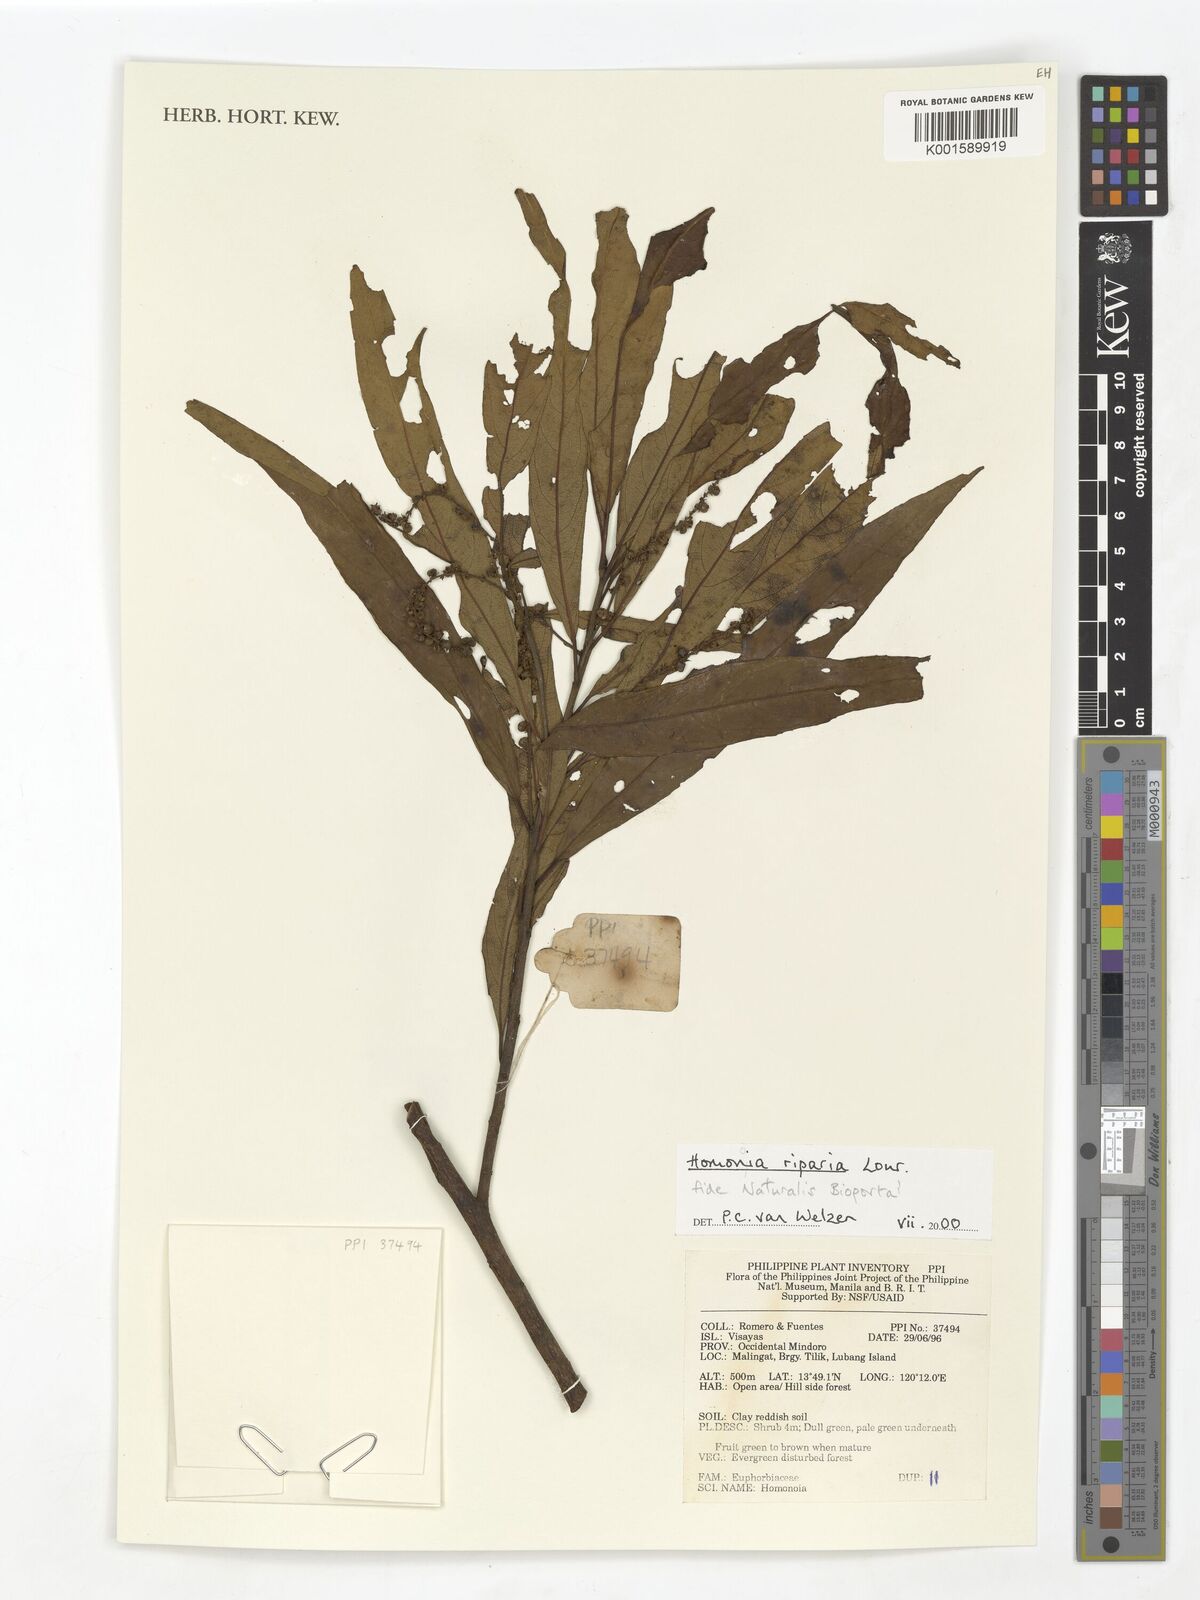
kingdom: Plantae
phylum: Tracheophyta
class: Magnoliopsida
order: Malpighiales
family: Euphorbiaceae
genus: Homonoia
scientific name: Homonoia riparia
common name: Willow-leaved water croton
